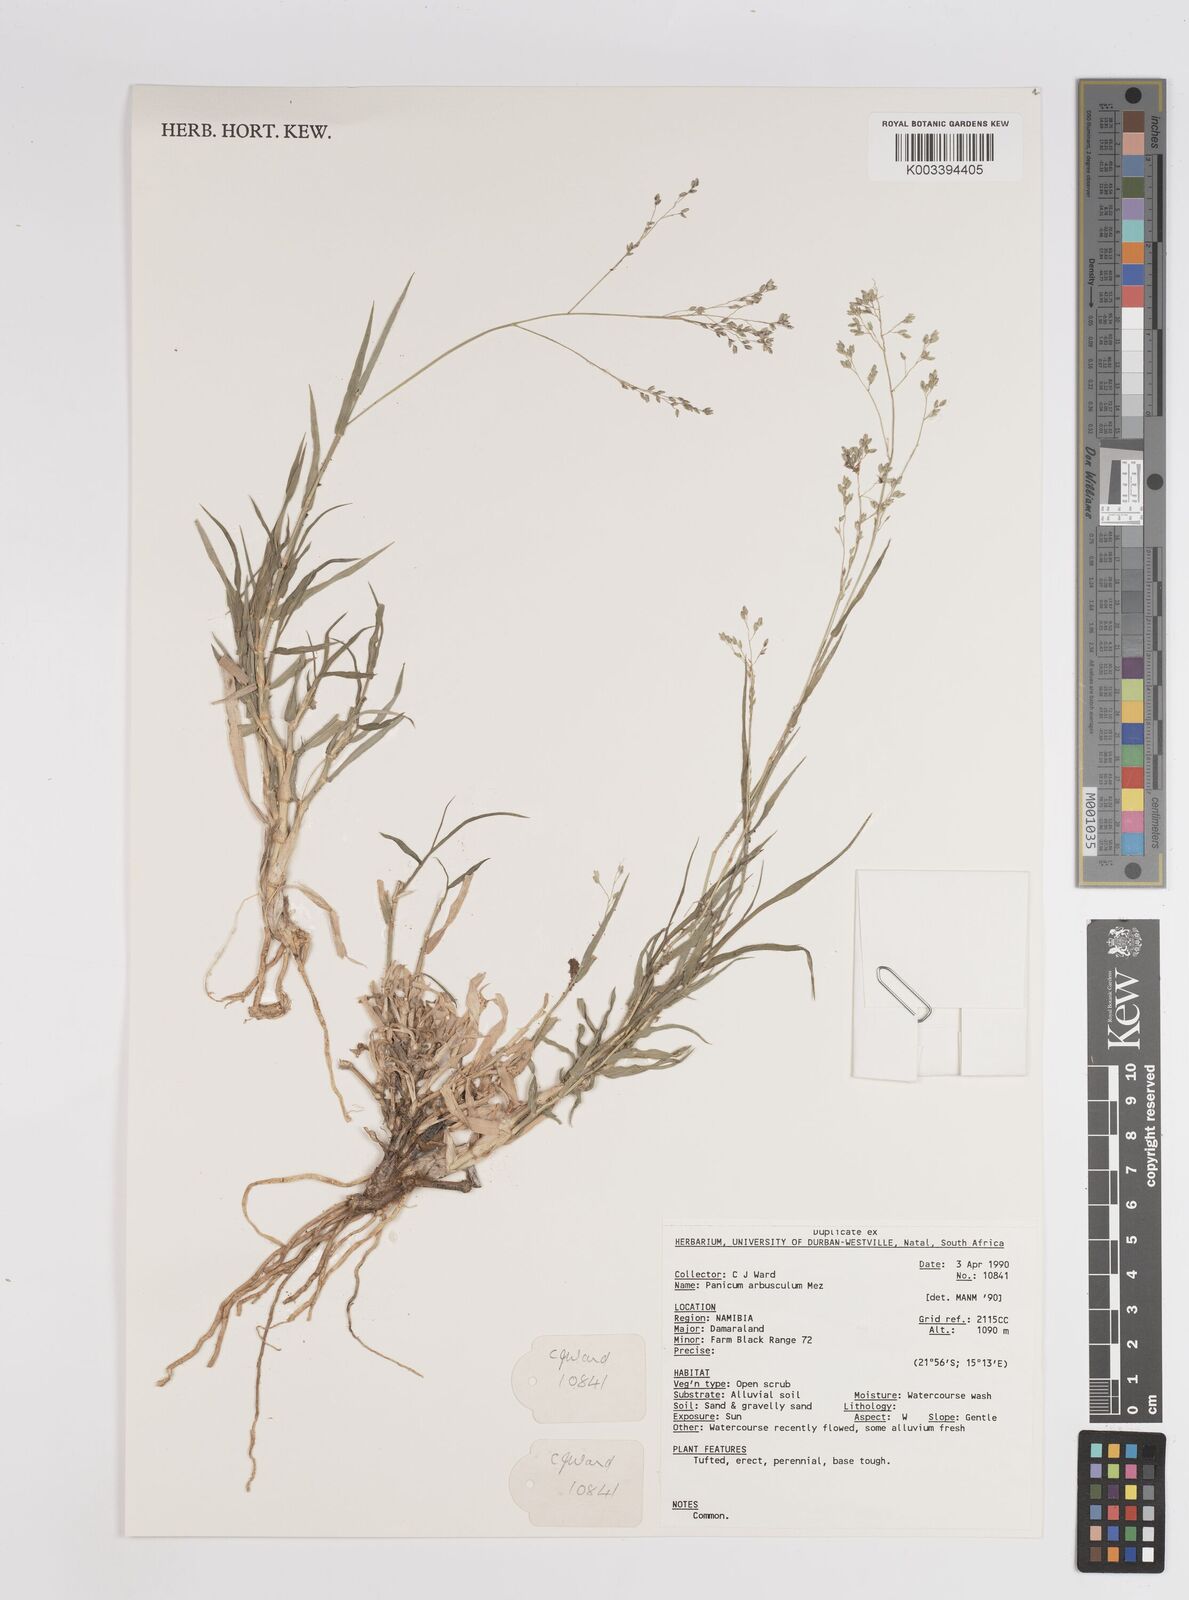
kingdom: Plantae
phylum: Tracheophyta
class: Liliopsida
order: Poales
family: Poaceae
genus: Panicum
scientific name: Panicum arbusculum
